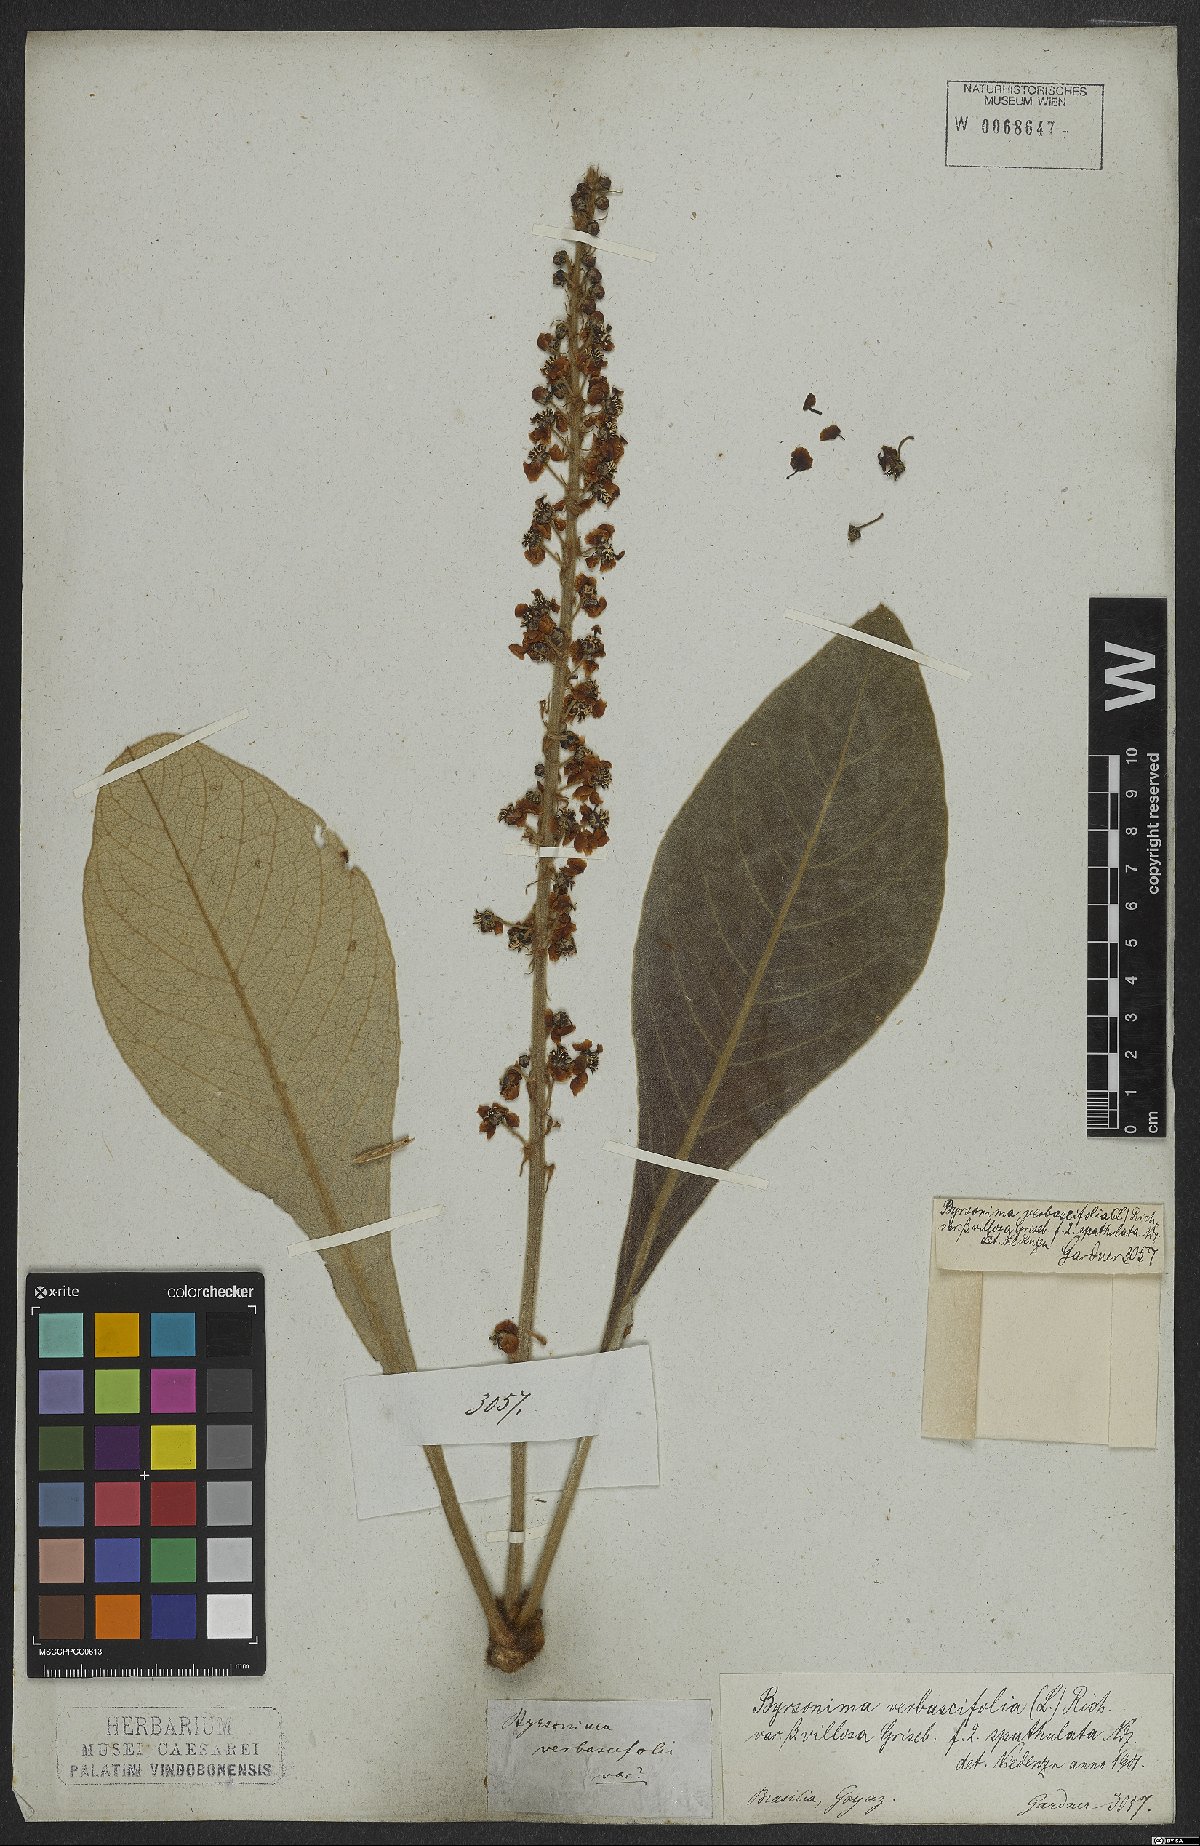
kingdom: Plantae
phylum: Tracheophyta
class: Magnoliopsida
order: Malpighiales
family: Malpighiaceae
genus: Byrsonima
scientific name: Byrsonima verbascifolia
